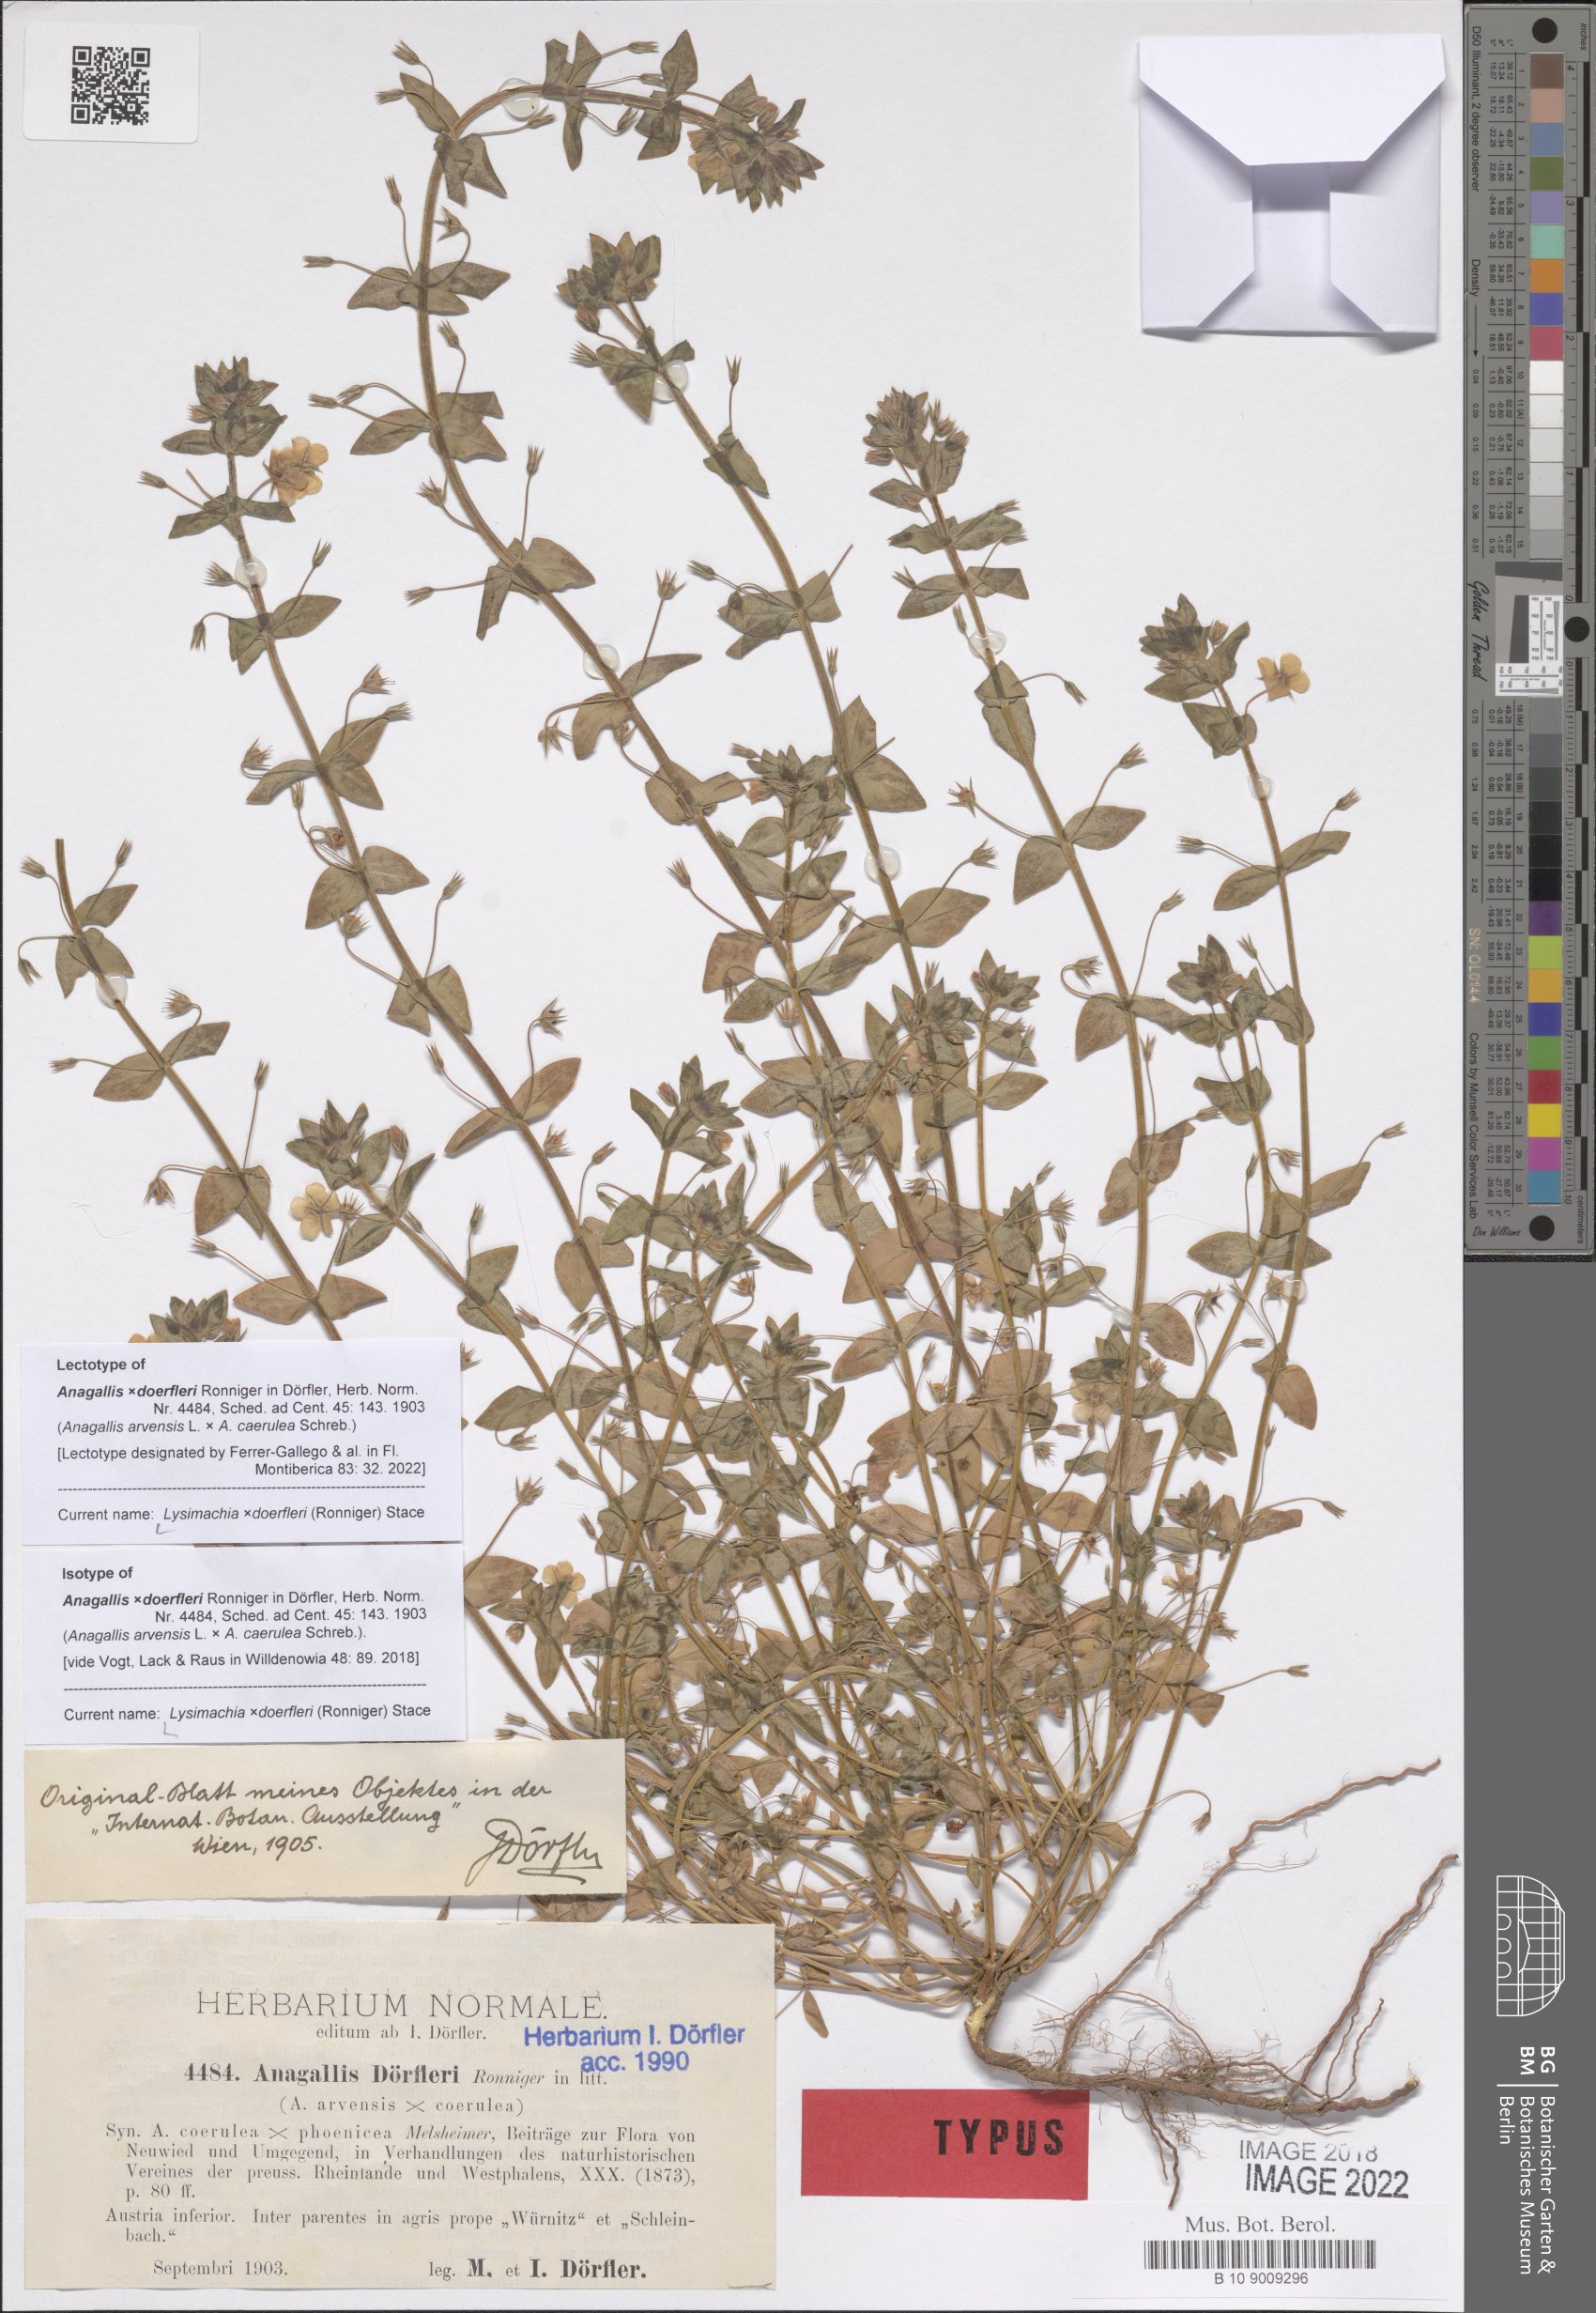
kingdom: Plantae
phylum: Tracheophyta
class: Magnoliopsida
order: Ericales
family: Primulaceae
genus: Lysimachia
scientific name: Lysimachia doerfleri
